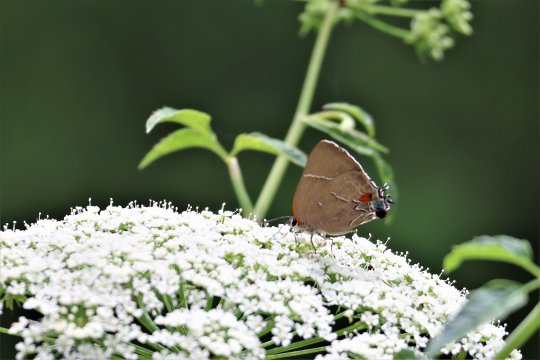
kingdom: Animalia
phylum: Arthropoda
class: Insecta
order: Lepidoptera
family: Lycaenidae
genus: Parrhasius
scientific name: Parrhasius m-album
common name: White-m Hairstreak
